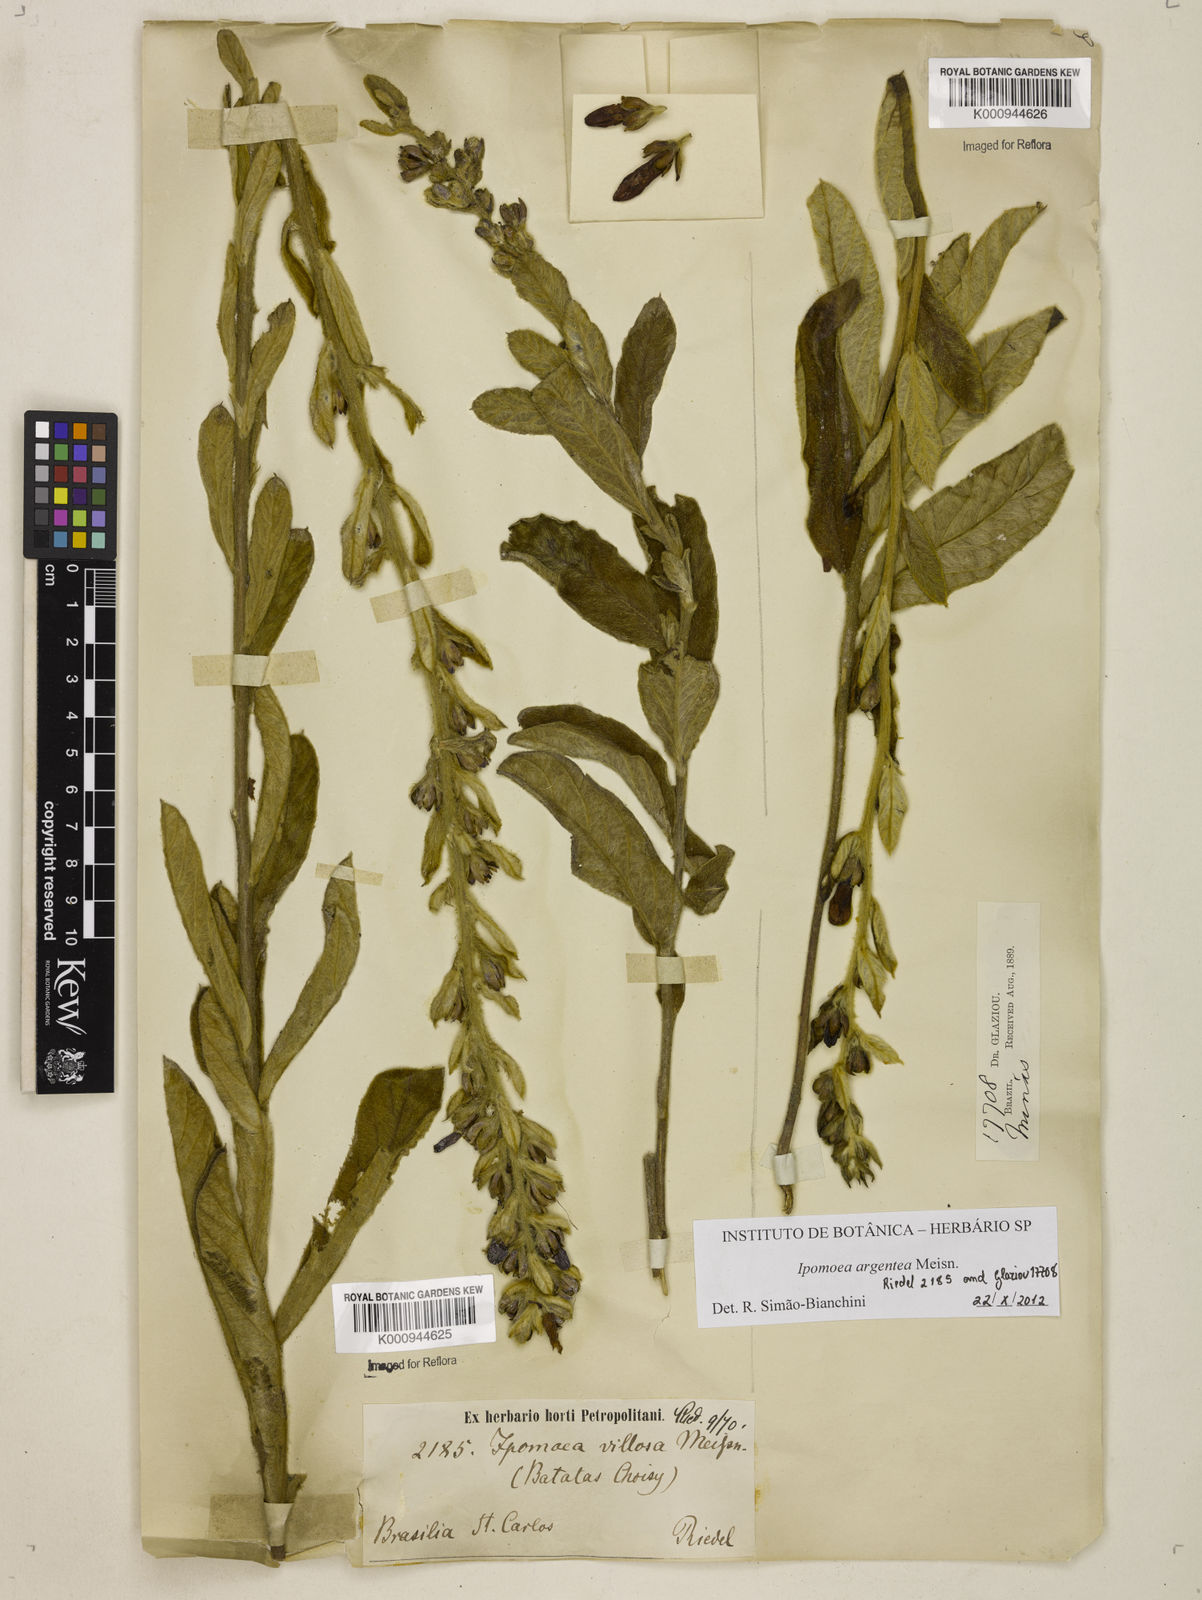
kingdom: Plantae
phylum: Tracheophyta
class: Magnoliopsida
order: Solanales
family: Convolvulaceae
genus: Ipomoea
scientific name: Ipomoea argentea
